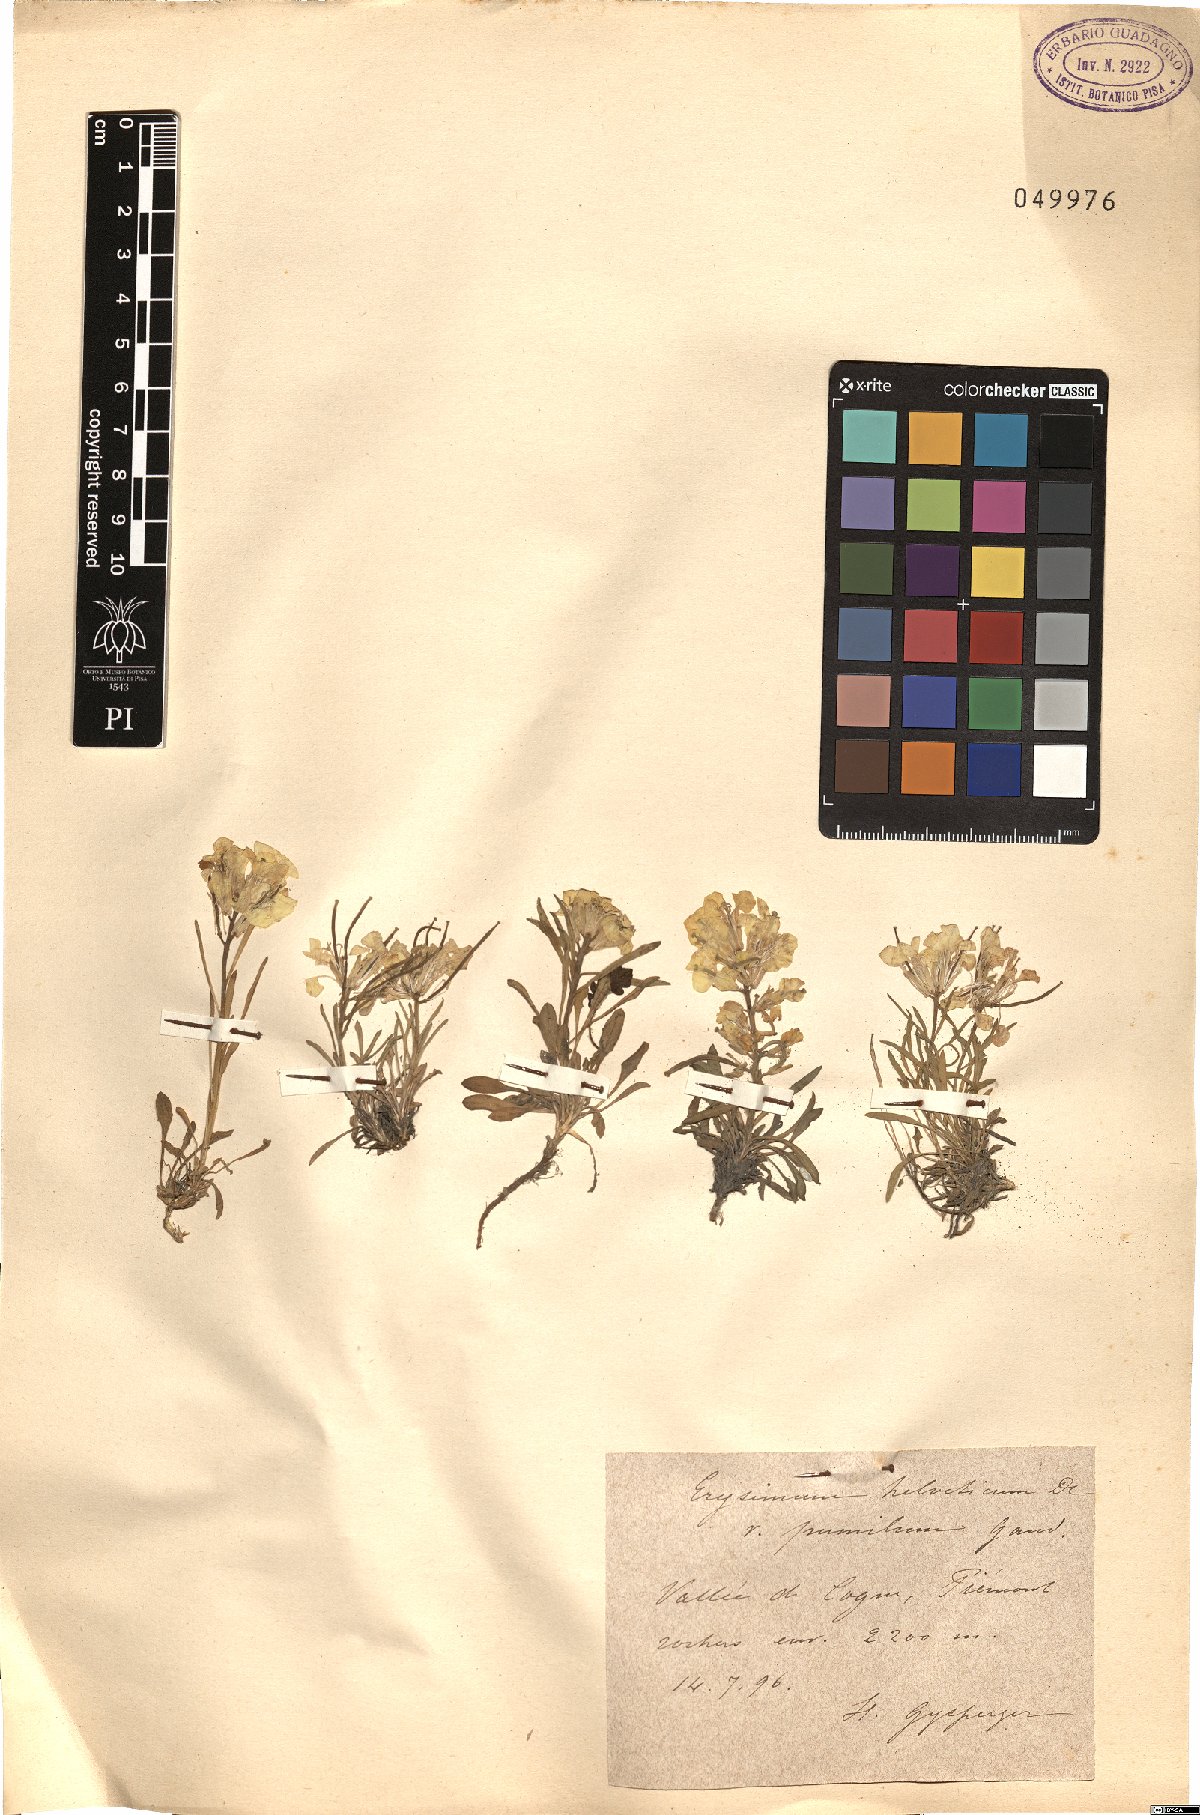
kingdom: Plantae
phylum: Tracheophyta
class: Magnoliopsida
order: Brassicales
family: Brassicaceae
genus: Erysimum
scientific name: Erysimum jugicolum
